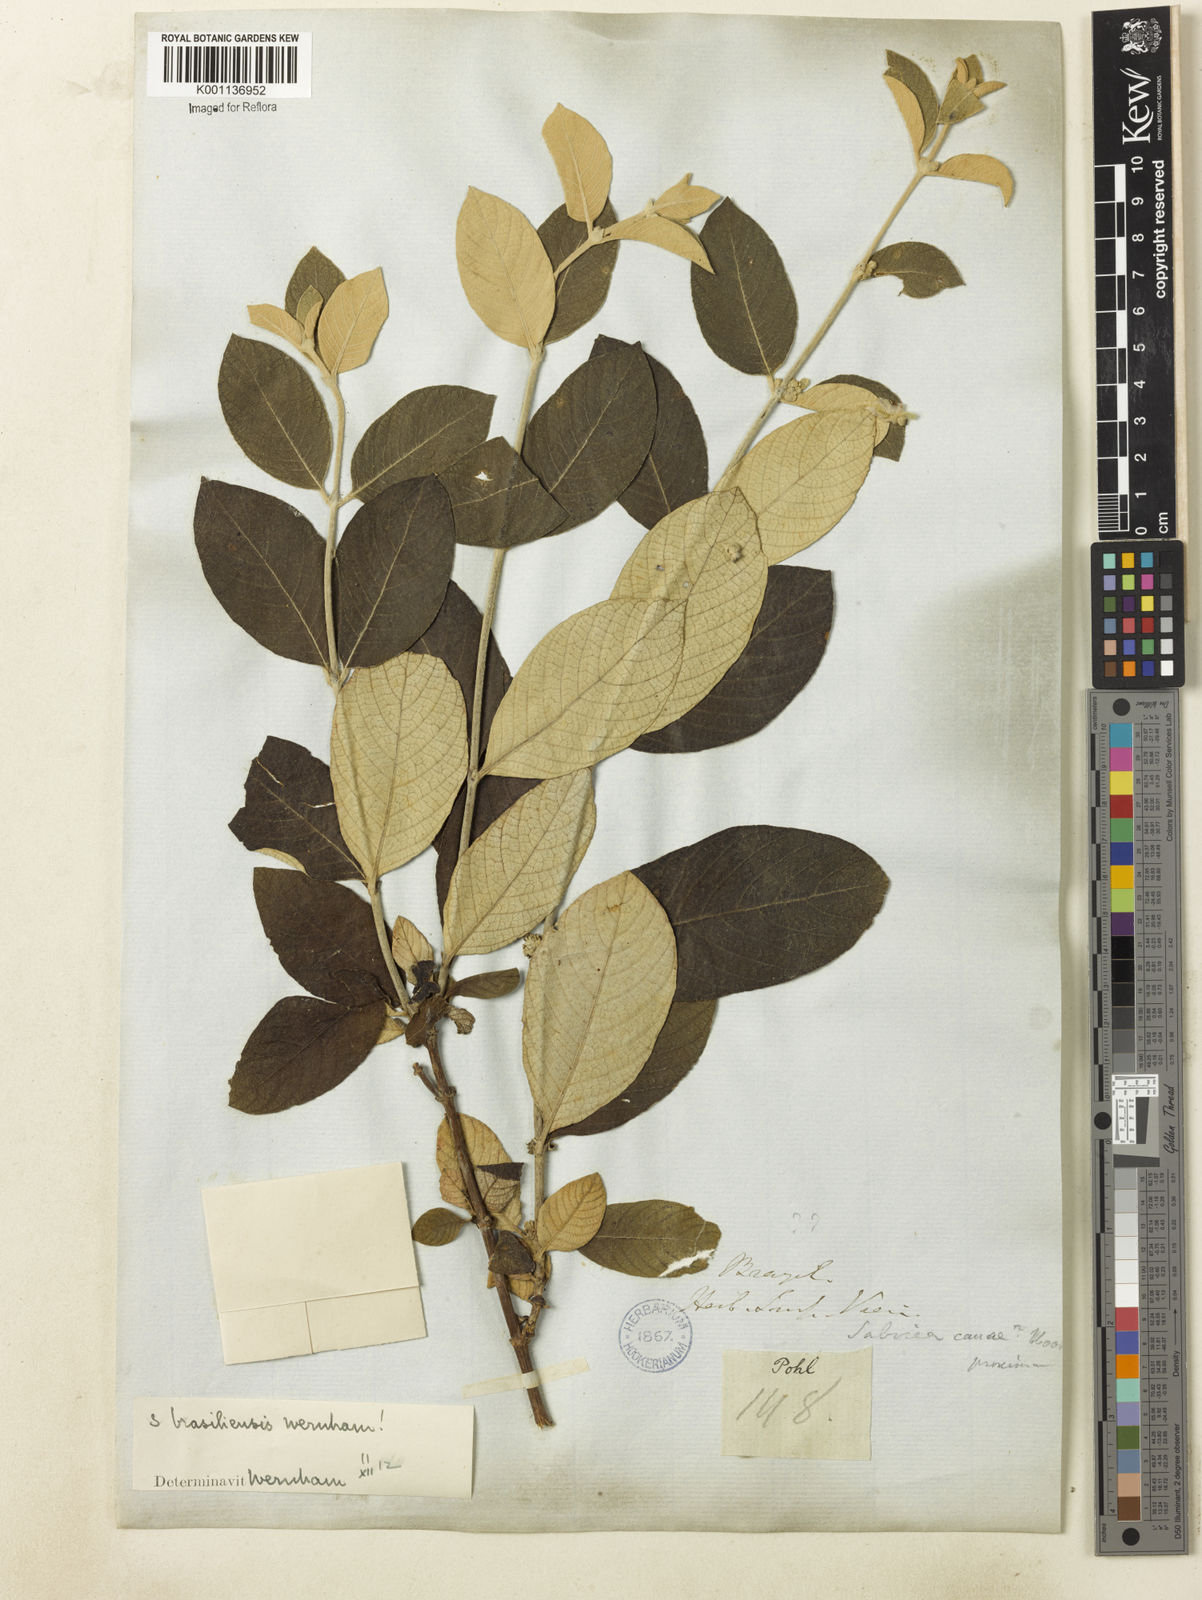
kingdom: Plantae
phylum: Tracheophyta
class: Magnoliopsida
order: Gentianales
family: Rubiaceae
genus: Sabicea
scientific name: Sabicea brasiliensis
